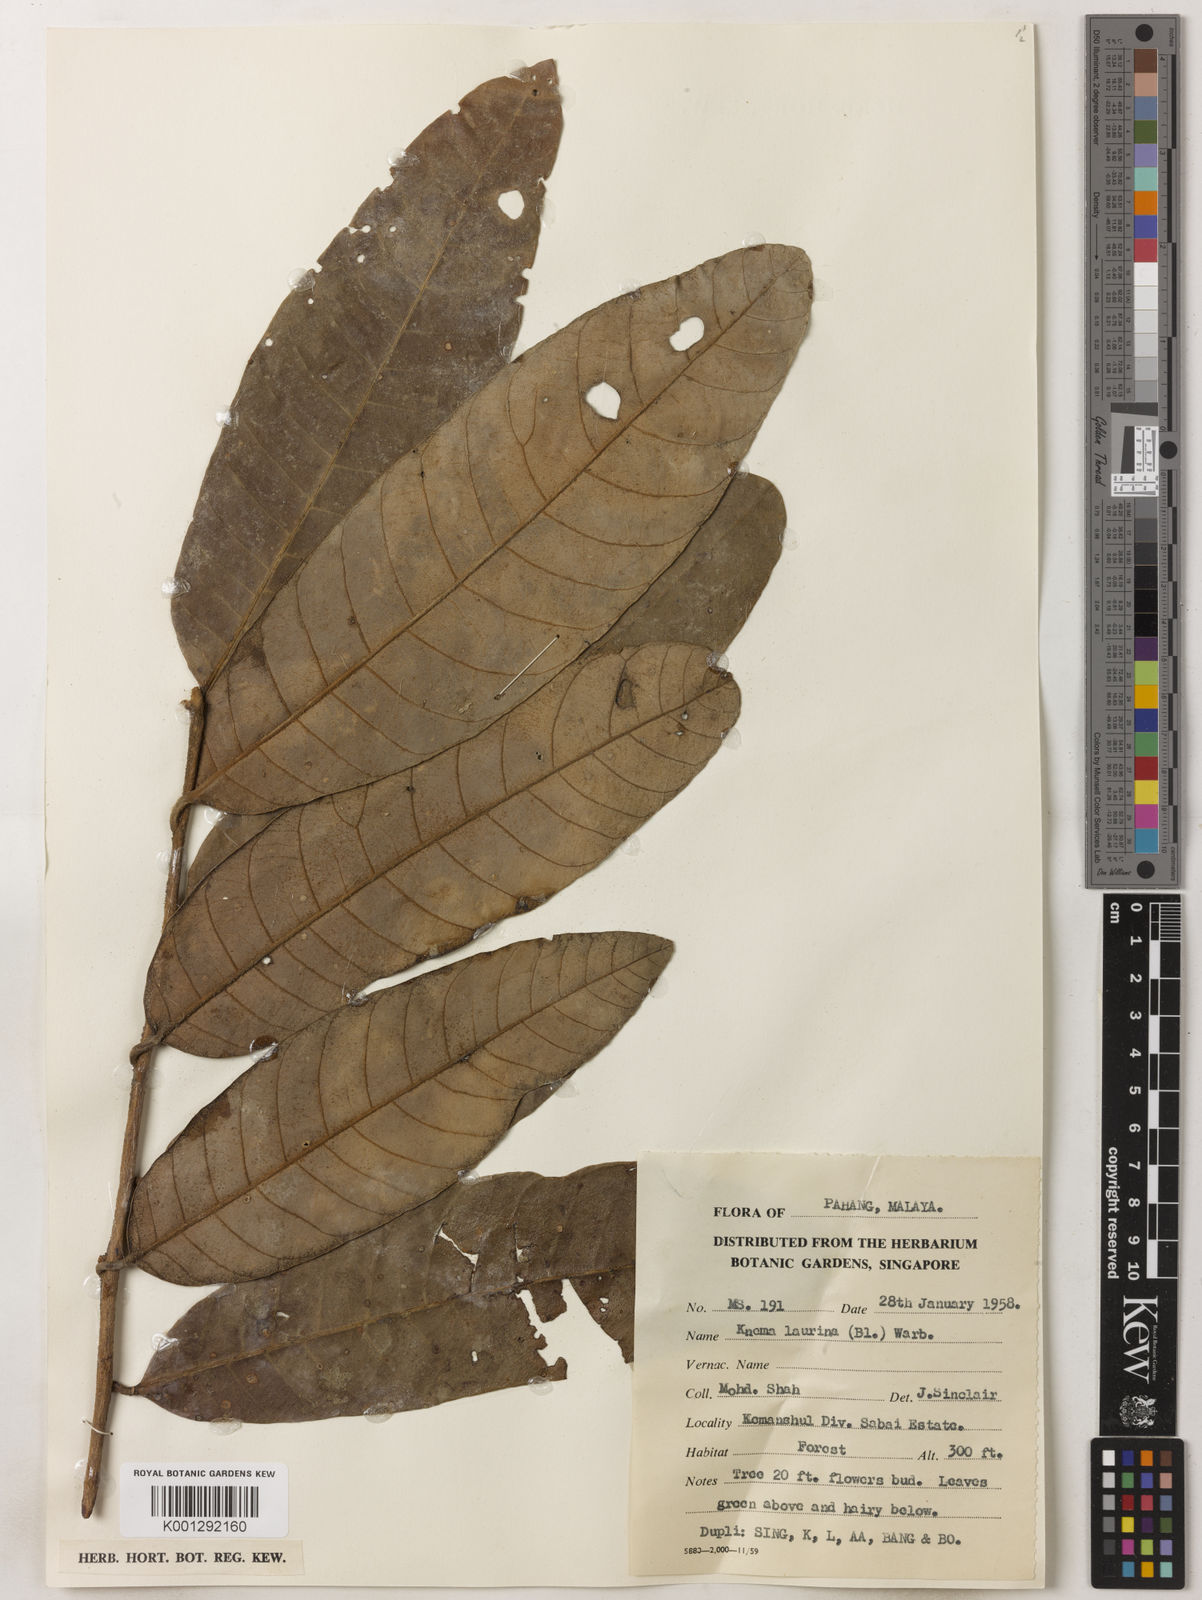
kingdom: Plantae
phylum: Tracheophyta
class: Magnoliopsida
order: Magnoliales
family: Myristicaceae
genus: Knema
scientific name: Knema laurina
